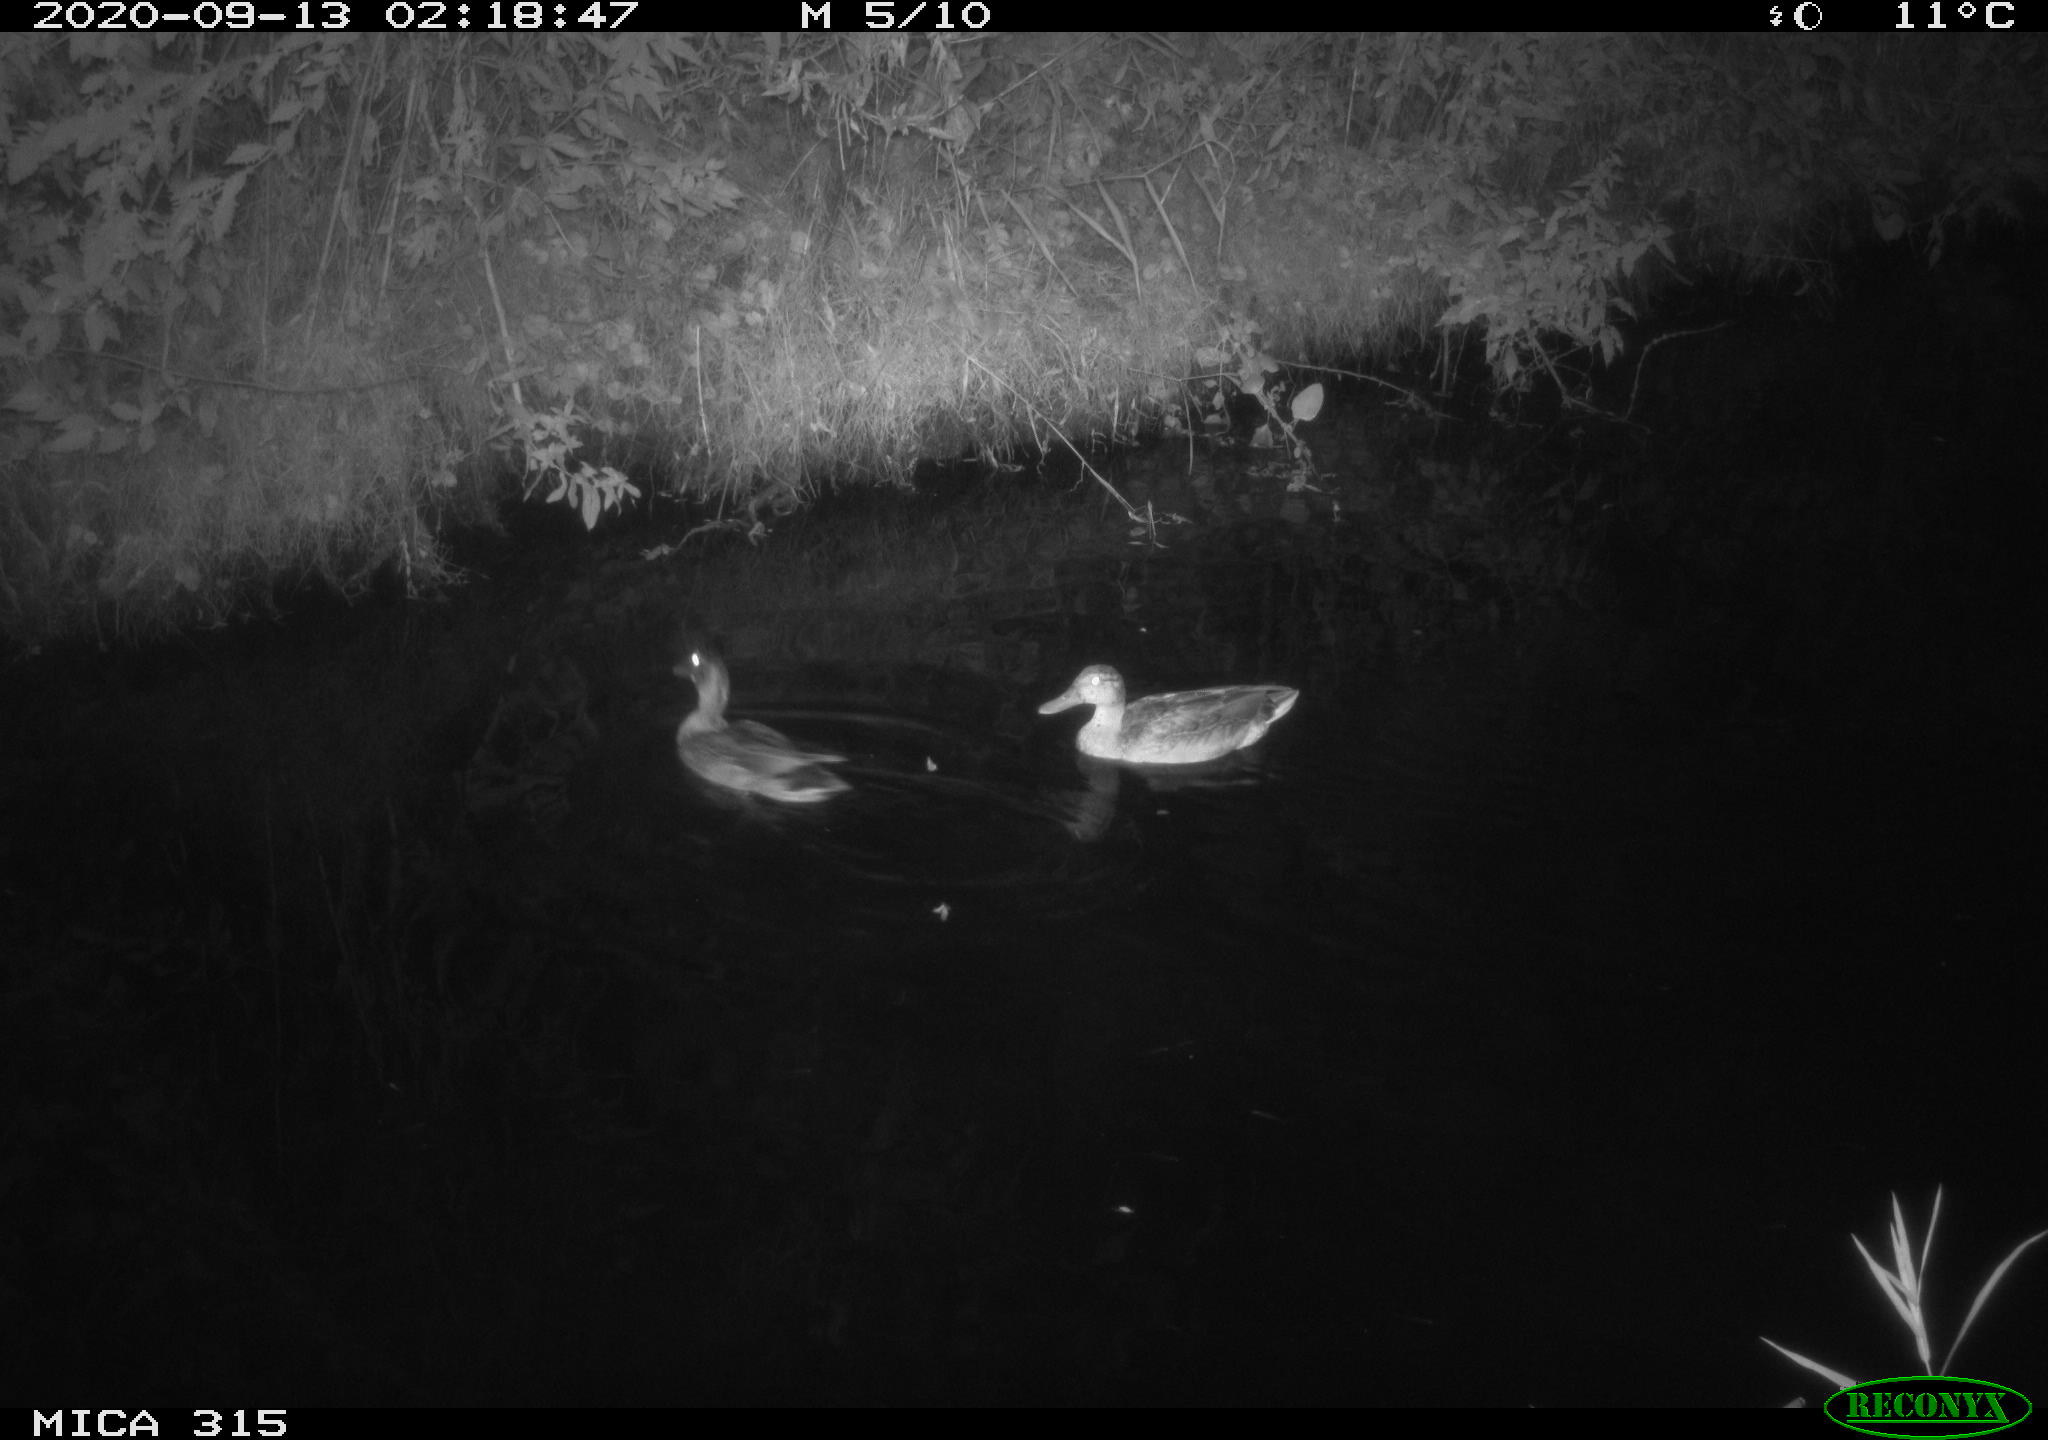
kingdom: Animalia
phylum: Chordata
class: Aves
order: Anseriformes
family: Anatidae
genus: Anas
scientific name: Anas platyrhynchos
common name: Mallard
